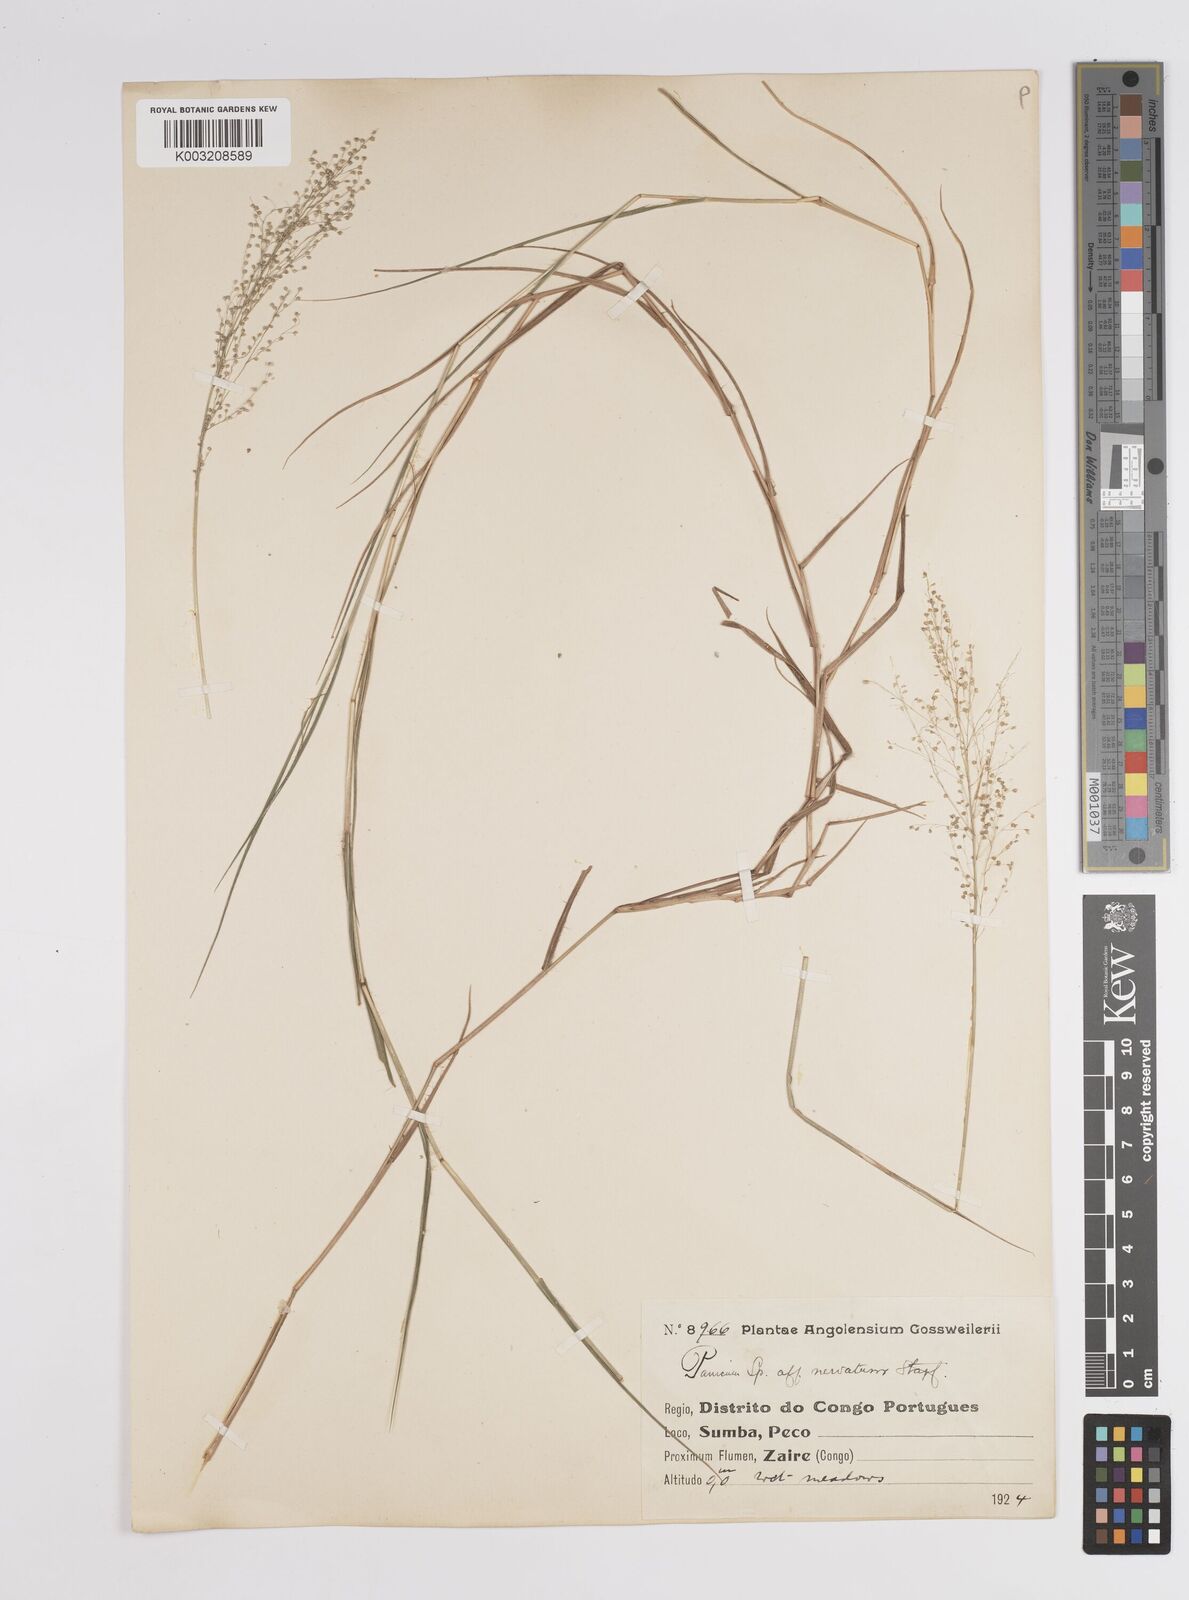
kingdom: Plantae
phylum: Tracheophyta
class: Liliopsida
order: Poales
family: Poaceae
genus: Trichanthecium
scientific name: Trichanthecium nervatum
